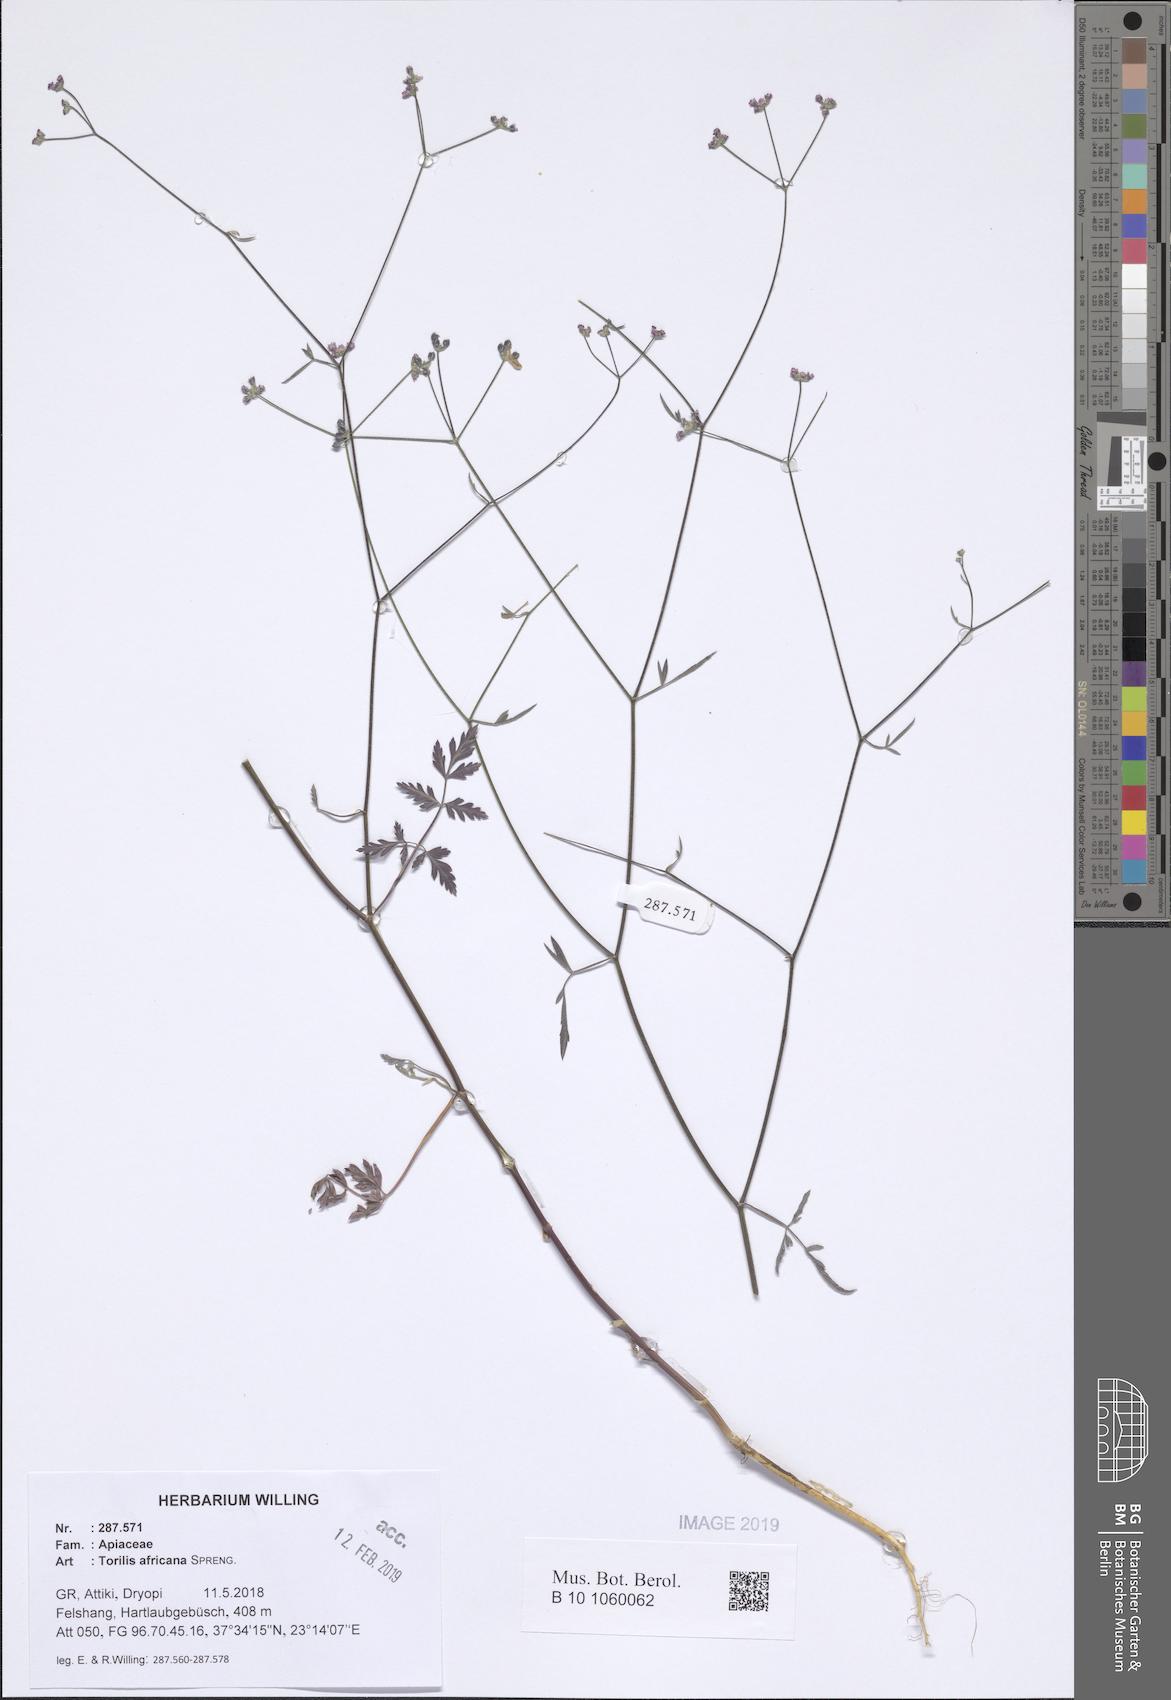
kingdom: Plantae
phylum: Tracheophyta
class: Magnoliopsida
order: Apiales
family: Apiaceae
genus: Torilis
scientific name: Torilis africana
